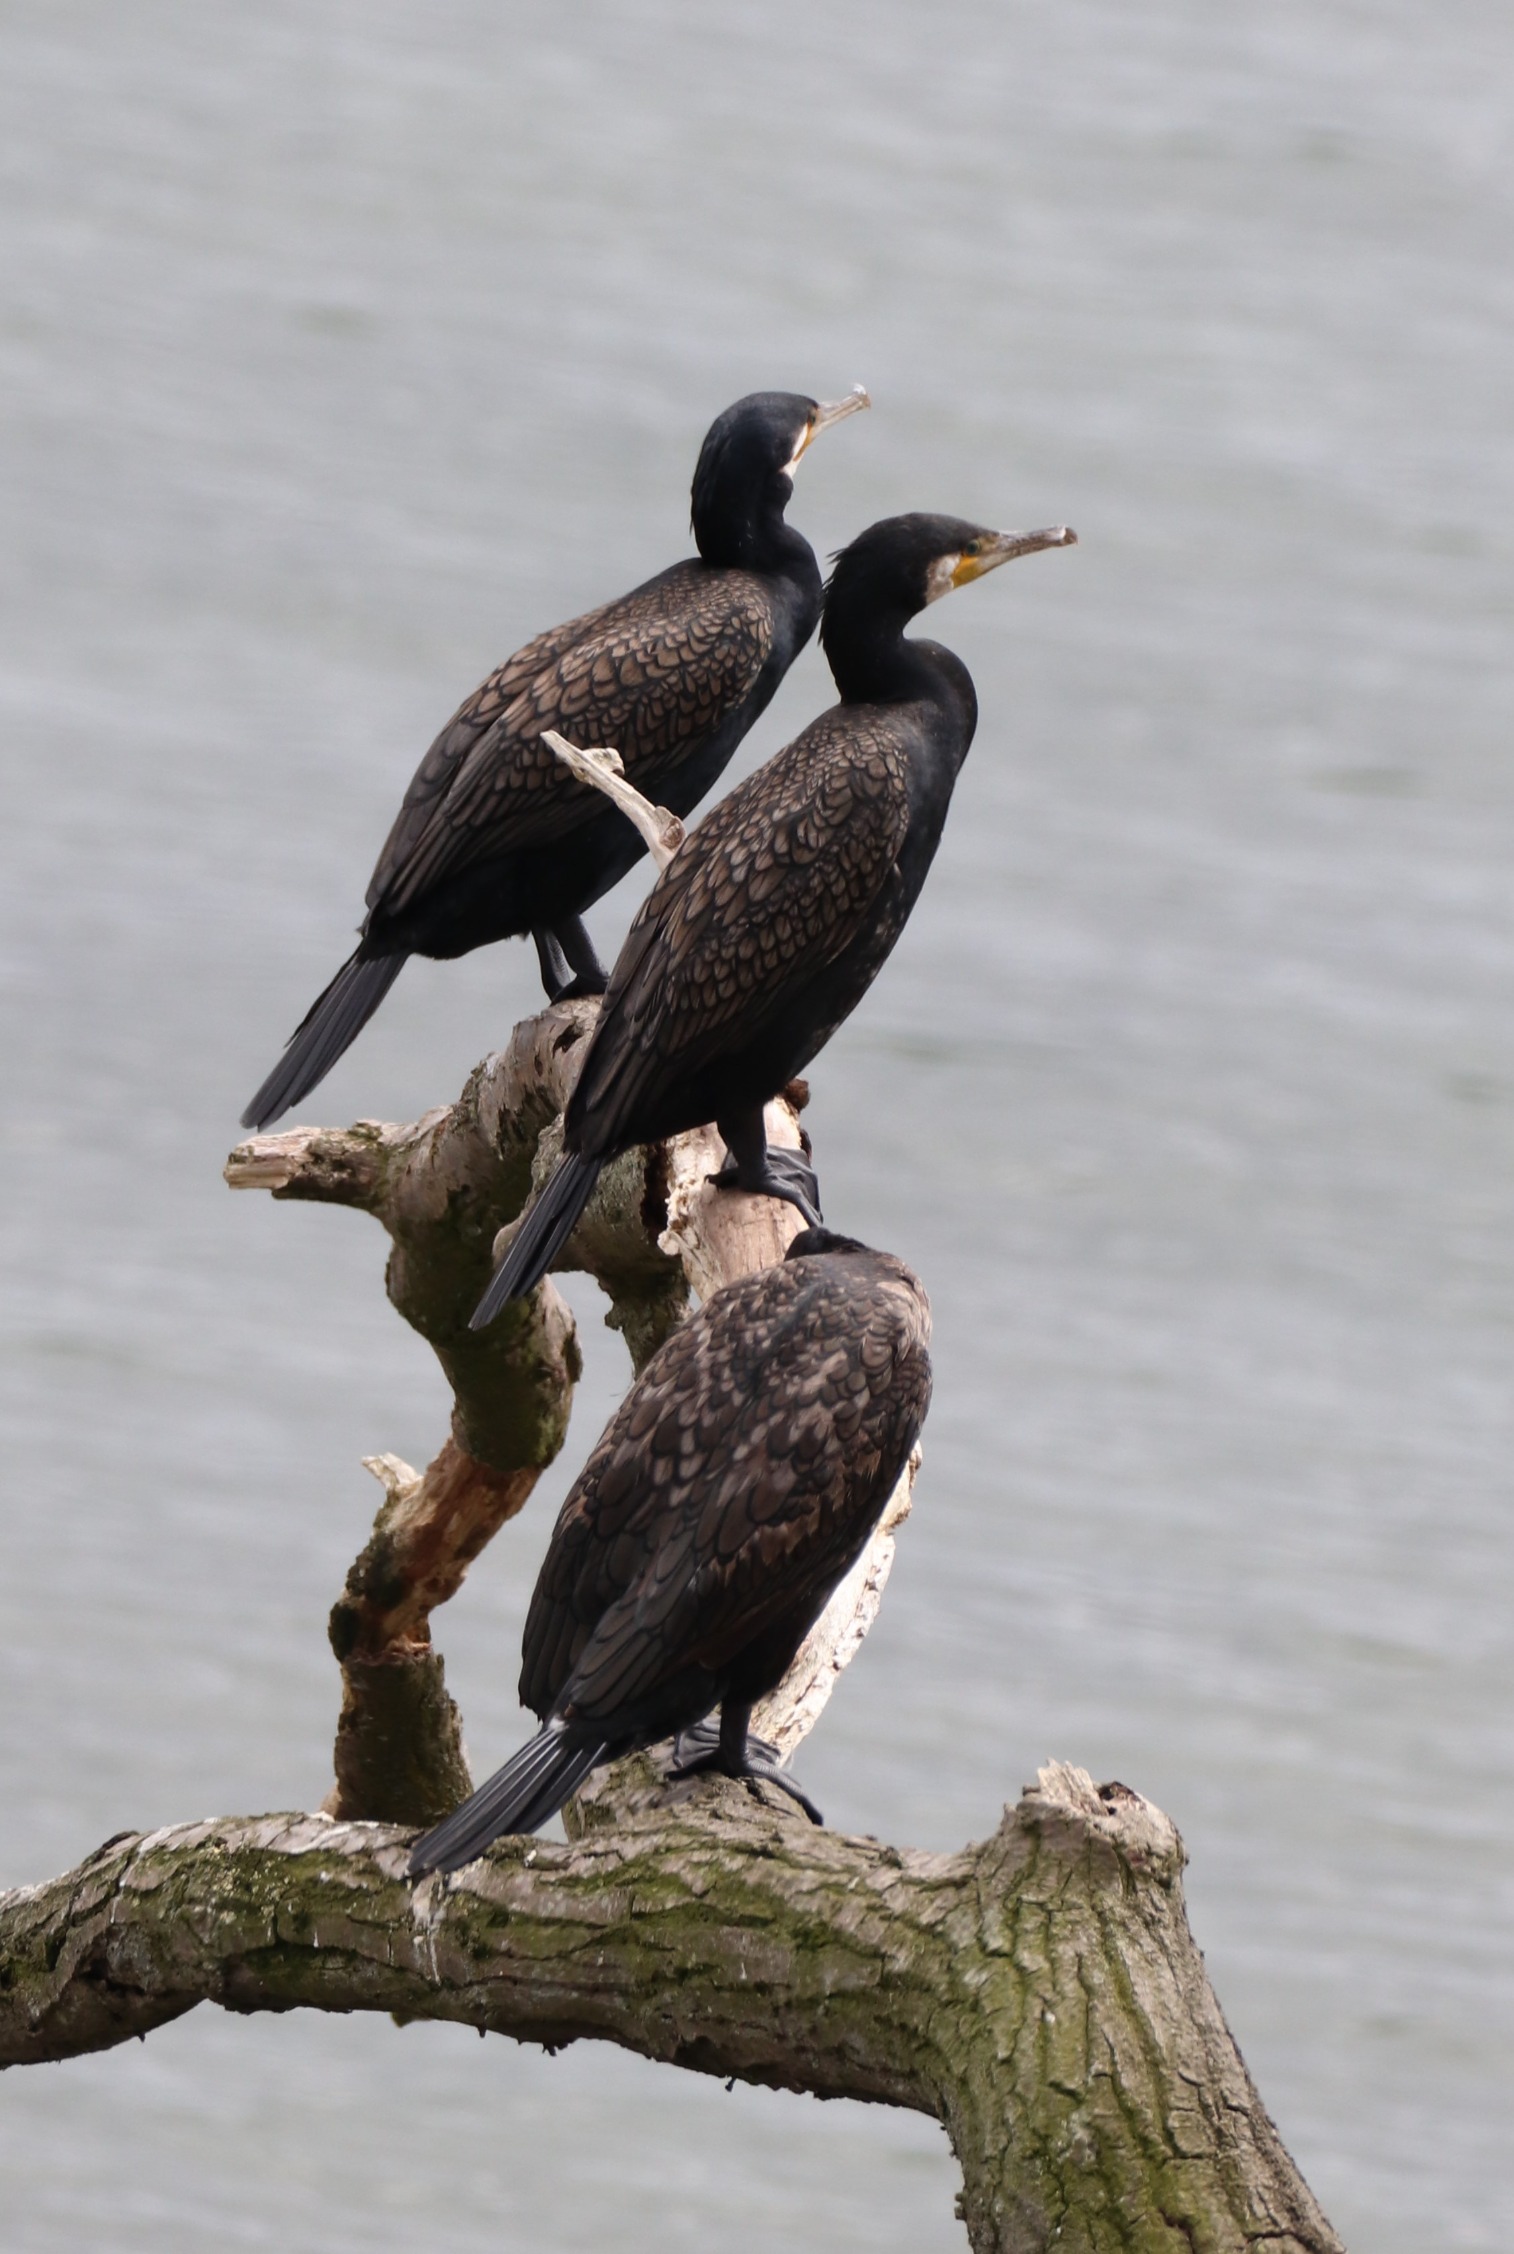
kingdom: Animalia
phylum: Chordata
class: Aves
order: Suliformes
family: Phalacrocoracidae
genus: Phalacrocorax
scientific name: Phalacrocorax carbo
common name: Skarv
